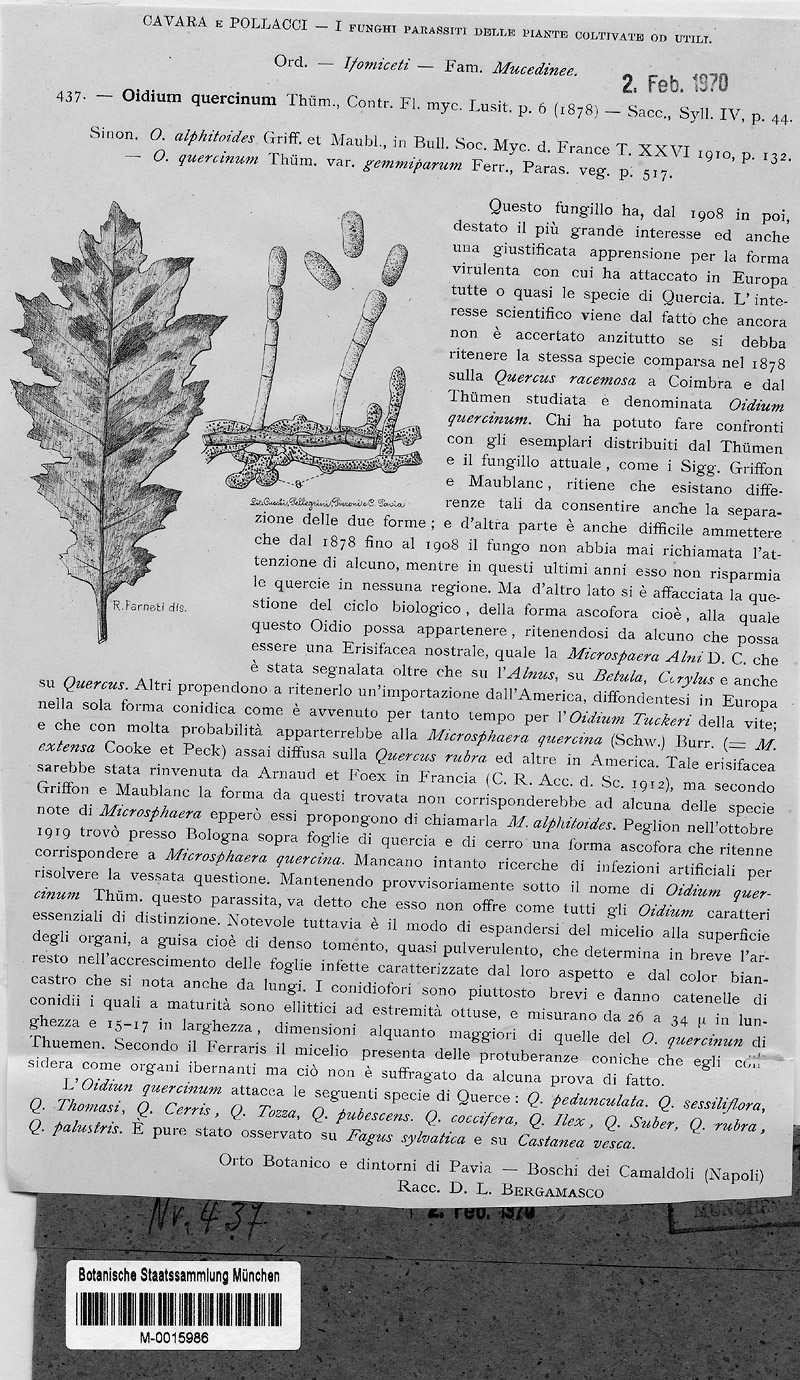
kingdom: Fungi
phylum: Ascomycota
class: Leotiomycetes
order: Helotiales
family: Erysiphaceae
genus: Erysiphe
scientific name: Erysiphe alphitoides
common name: Oak mildew
